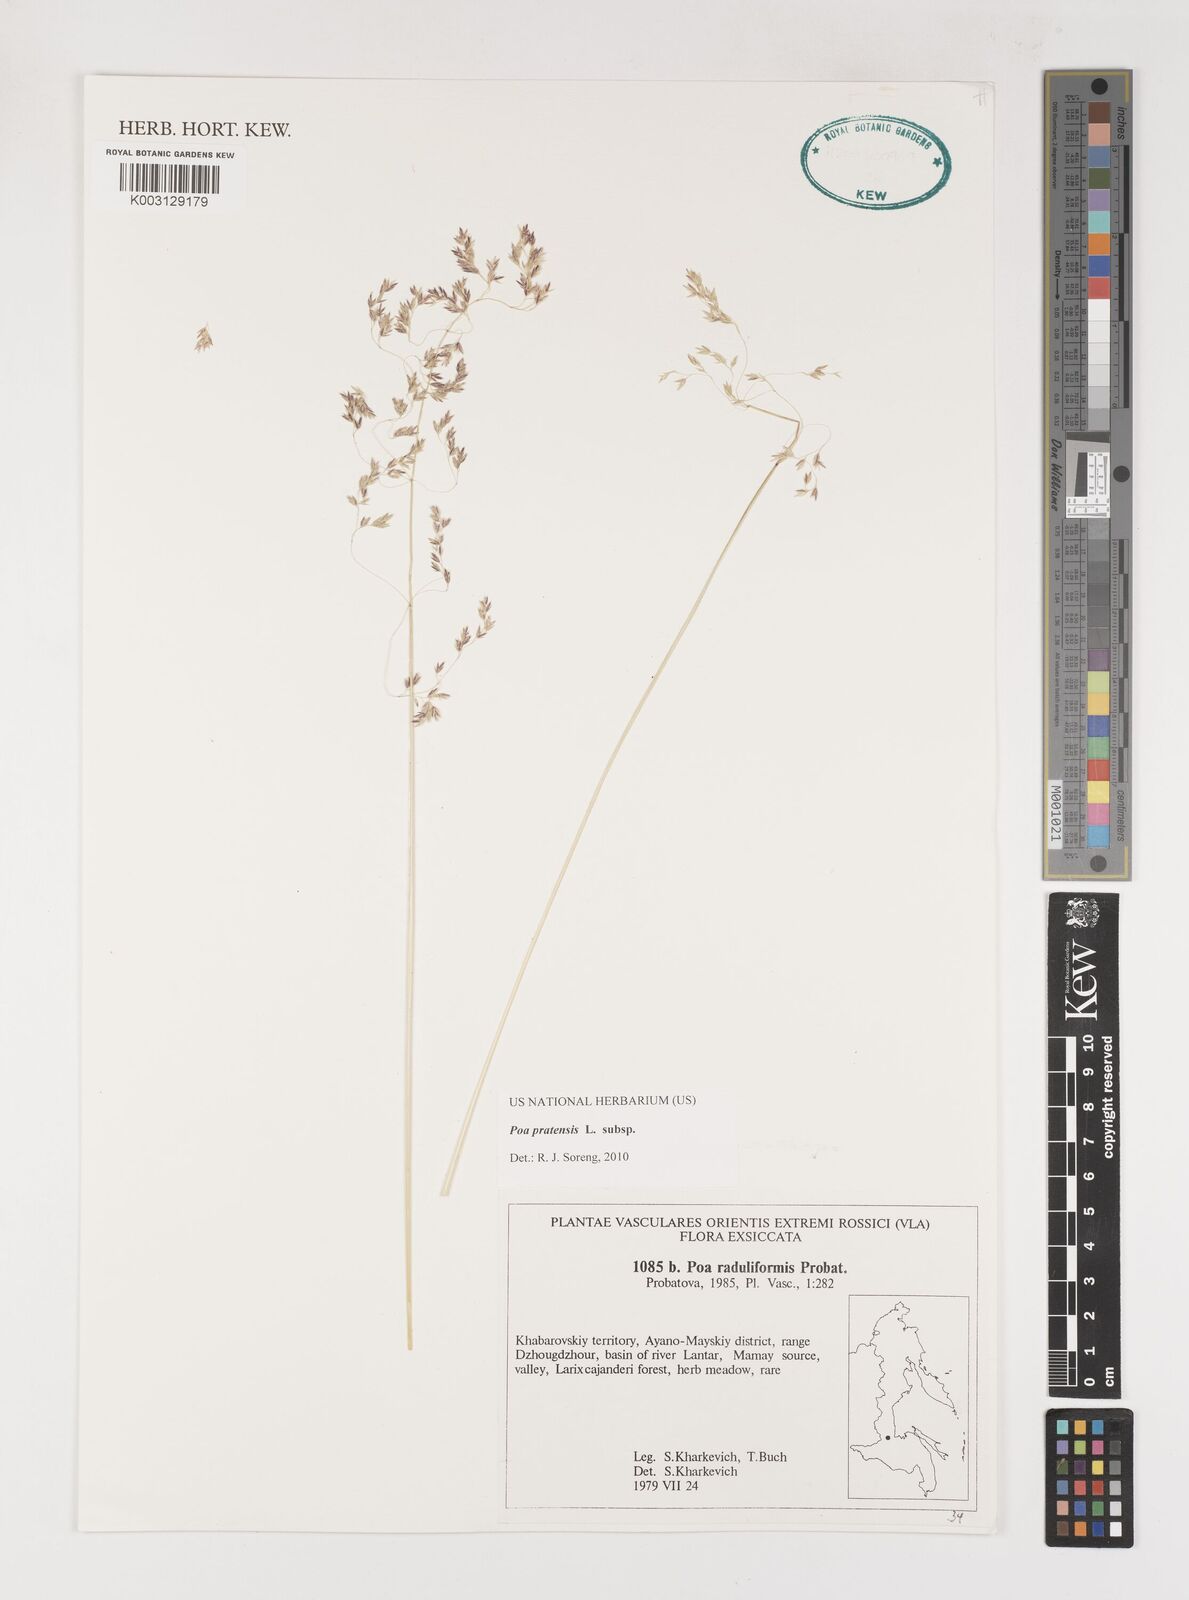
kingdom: Plantae
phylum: Tracheophyta
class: Liliopsida
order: Poales
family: Poaceae
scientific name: Poaceae
